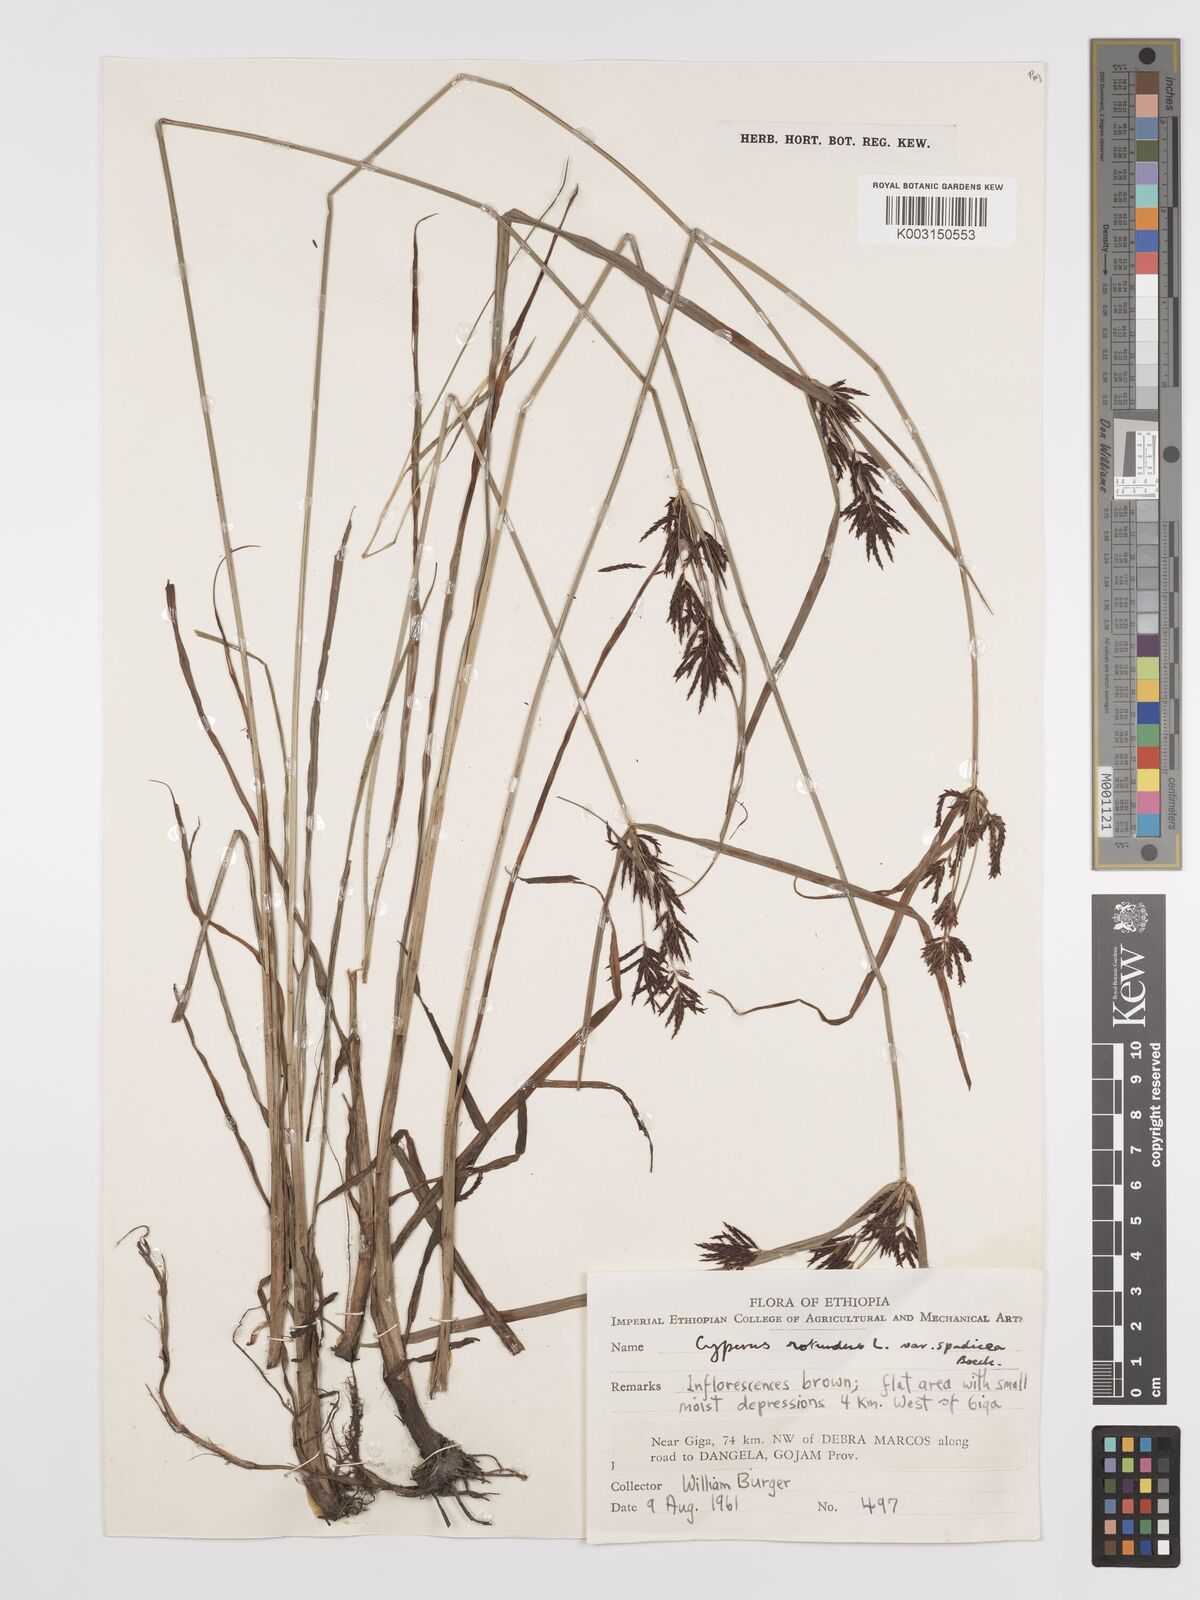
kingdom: Plantae
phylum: Tracheophyta
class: Liliopsida
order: Poales
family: Cyperaceae
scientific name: Cyperaceae
